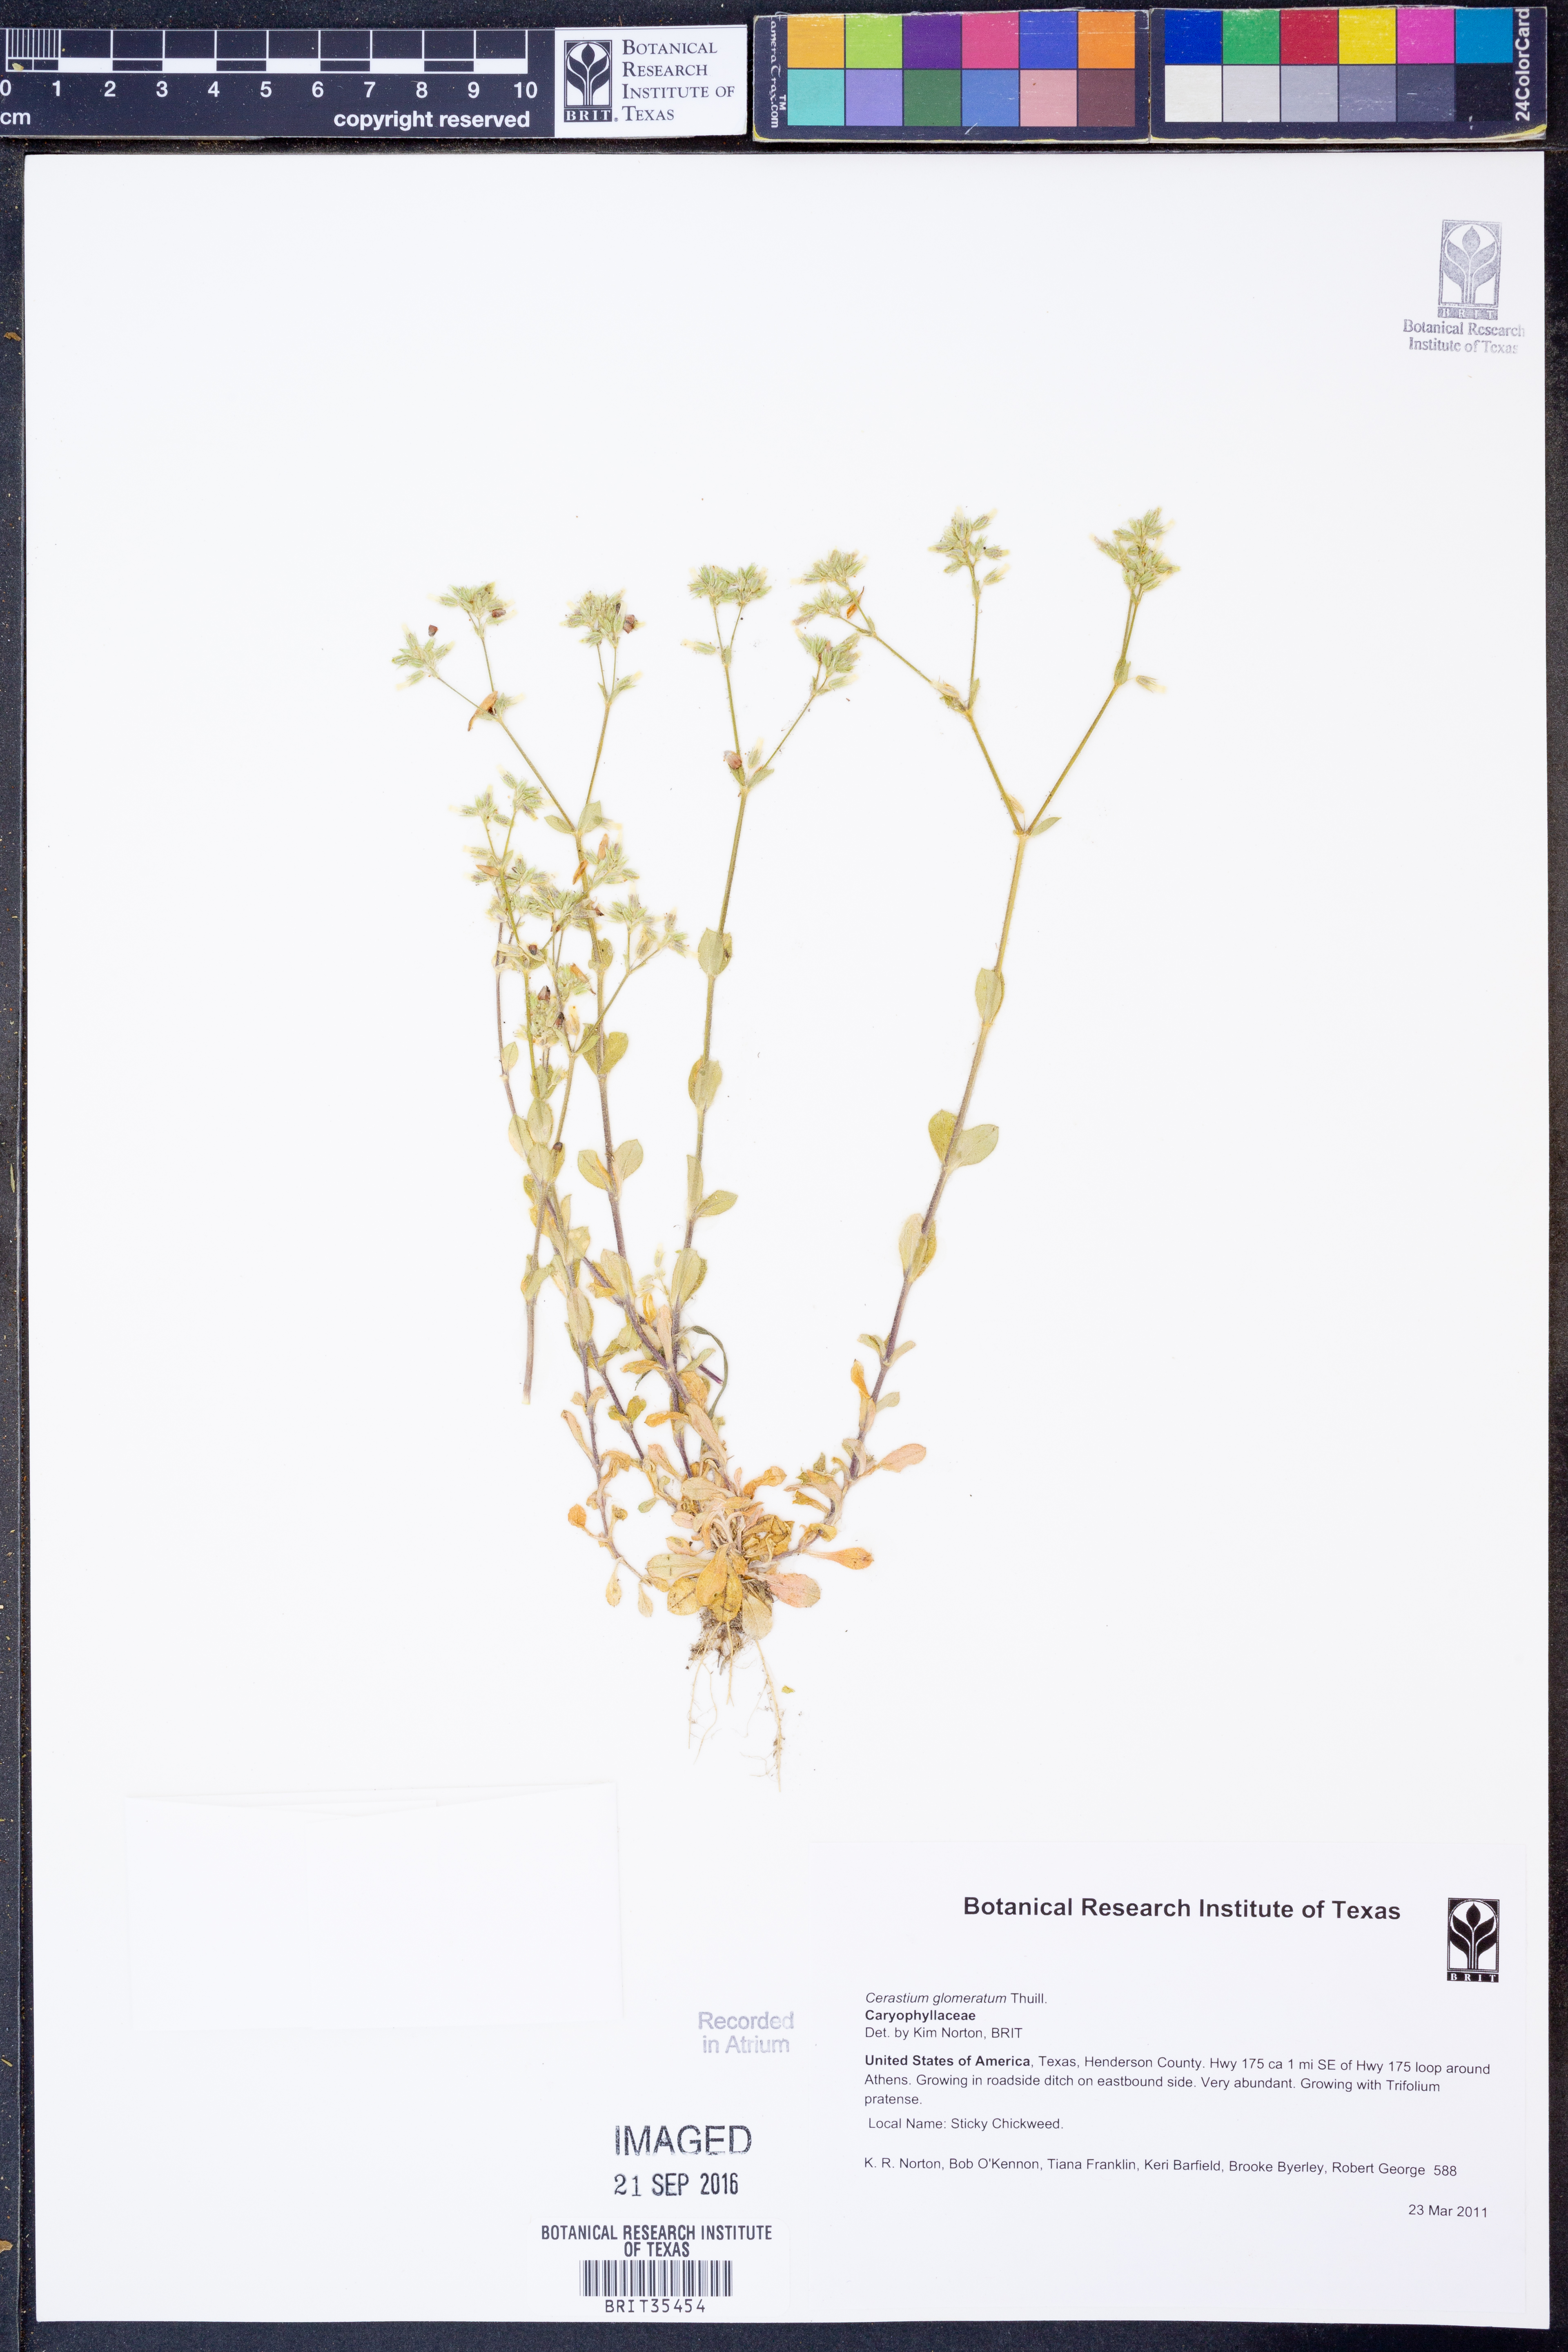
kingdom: Plantae
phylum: Tracheophyta
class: Magnoliopsida
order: Caryophyllales
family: Caryophyllaceae
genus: Cerastium
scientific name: Cerastium glomeratum
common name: Sticky chickweed
